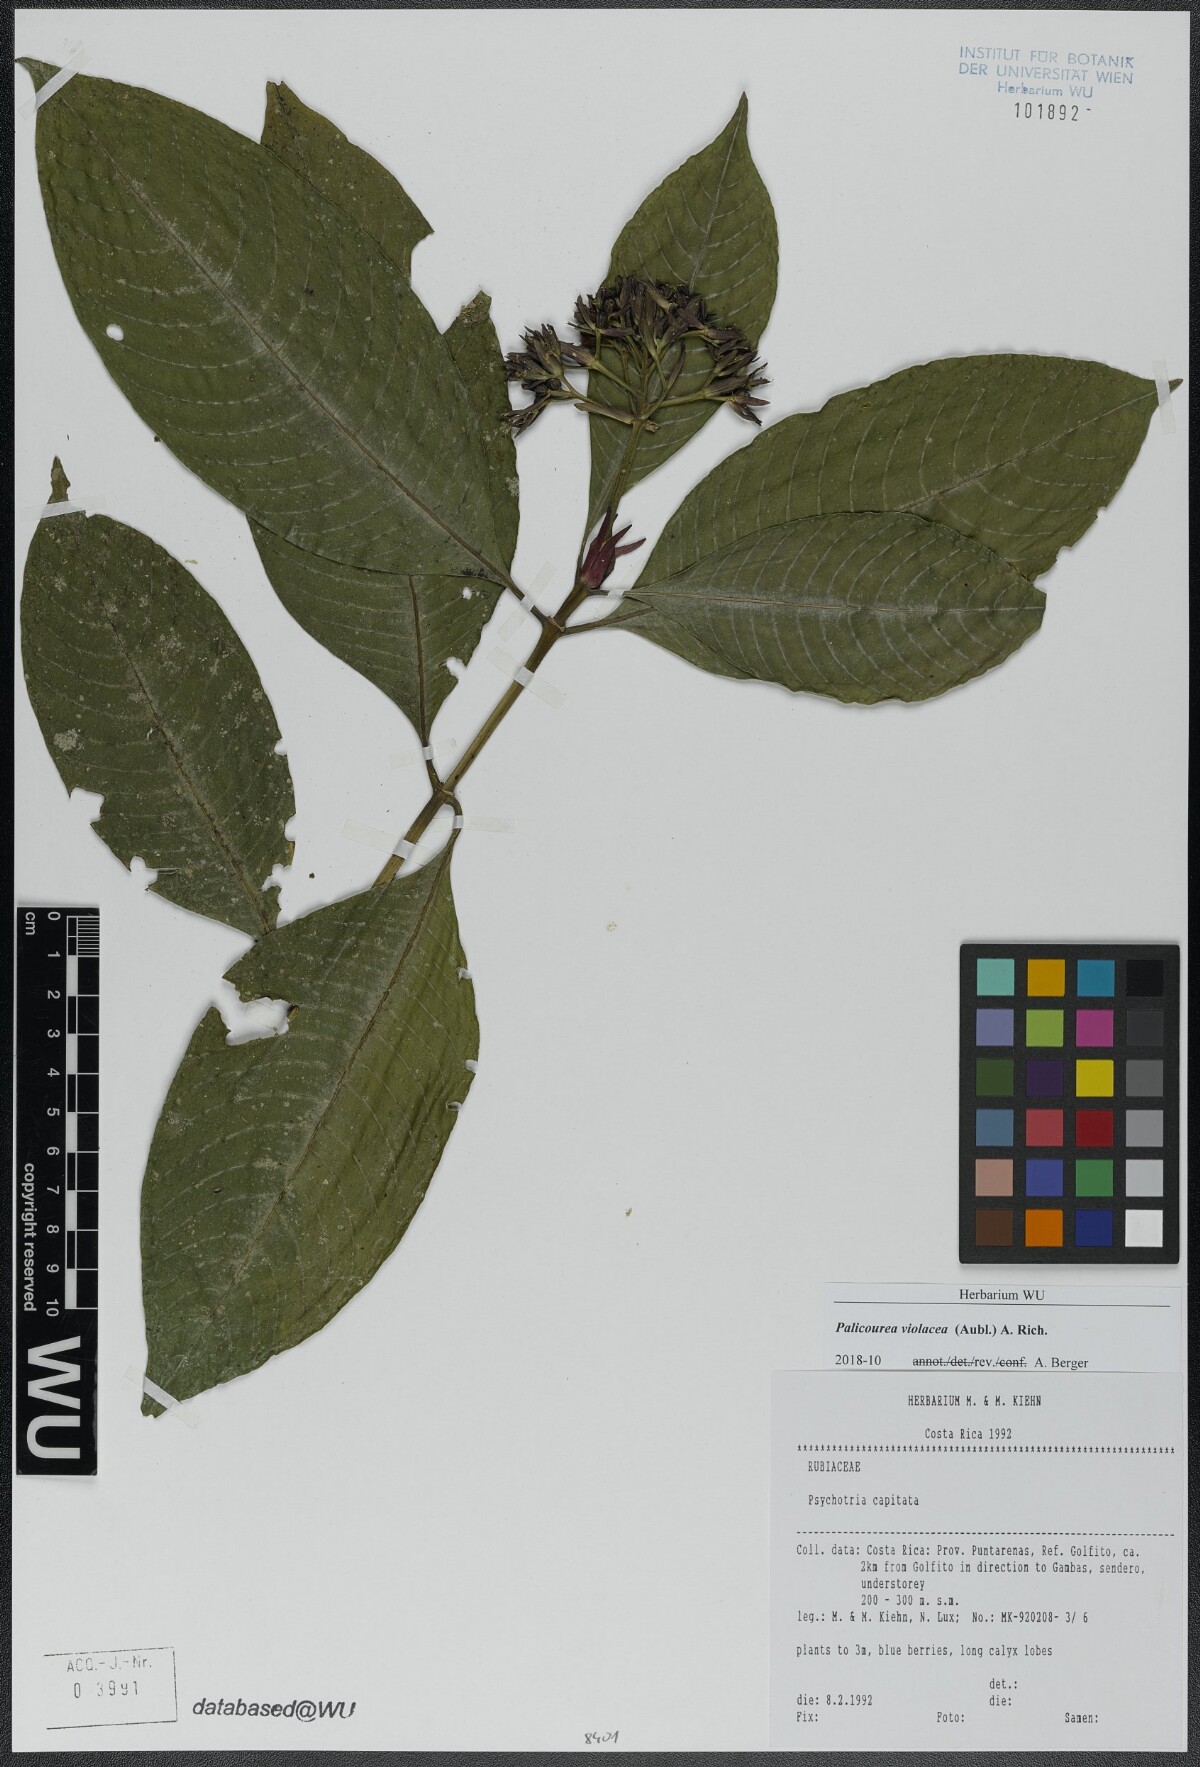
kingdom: Plantae
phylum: Tracheophyta
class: Magnoliopsida
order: Gentianales
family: Rubiaceae
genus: Palicourea
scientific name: Palicourea violacea
